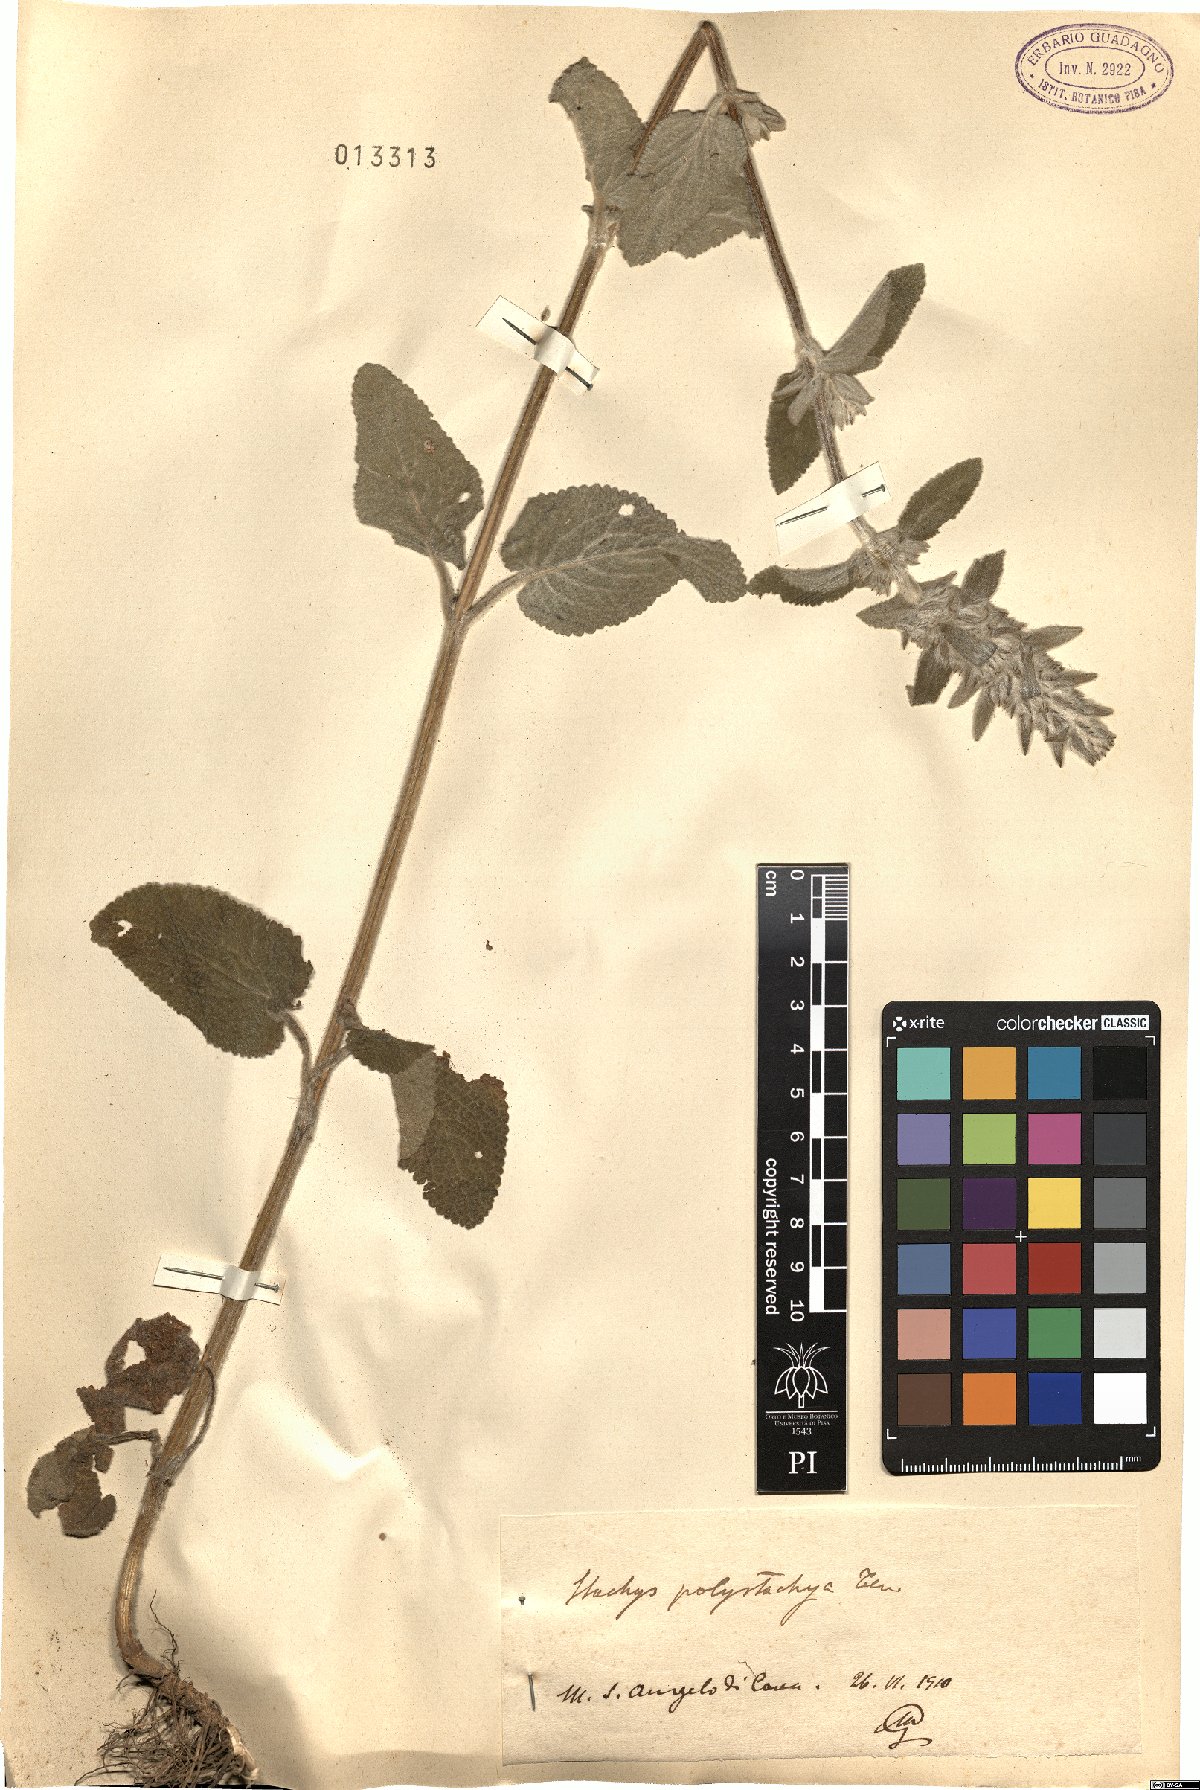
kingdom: Plantae
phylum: Tracheophyta
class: Magnoliopsida
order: Lamiales
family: Lamiaceae
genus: Stachys
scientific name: Stachys germanica
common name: Downy woundwort
